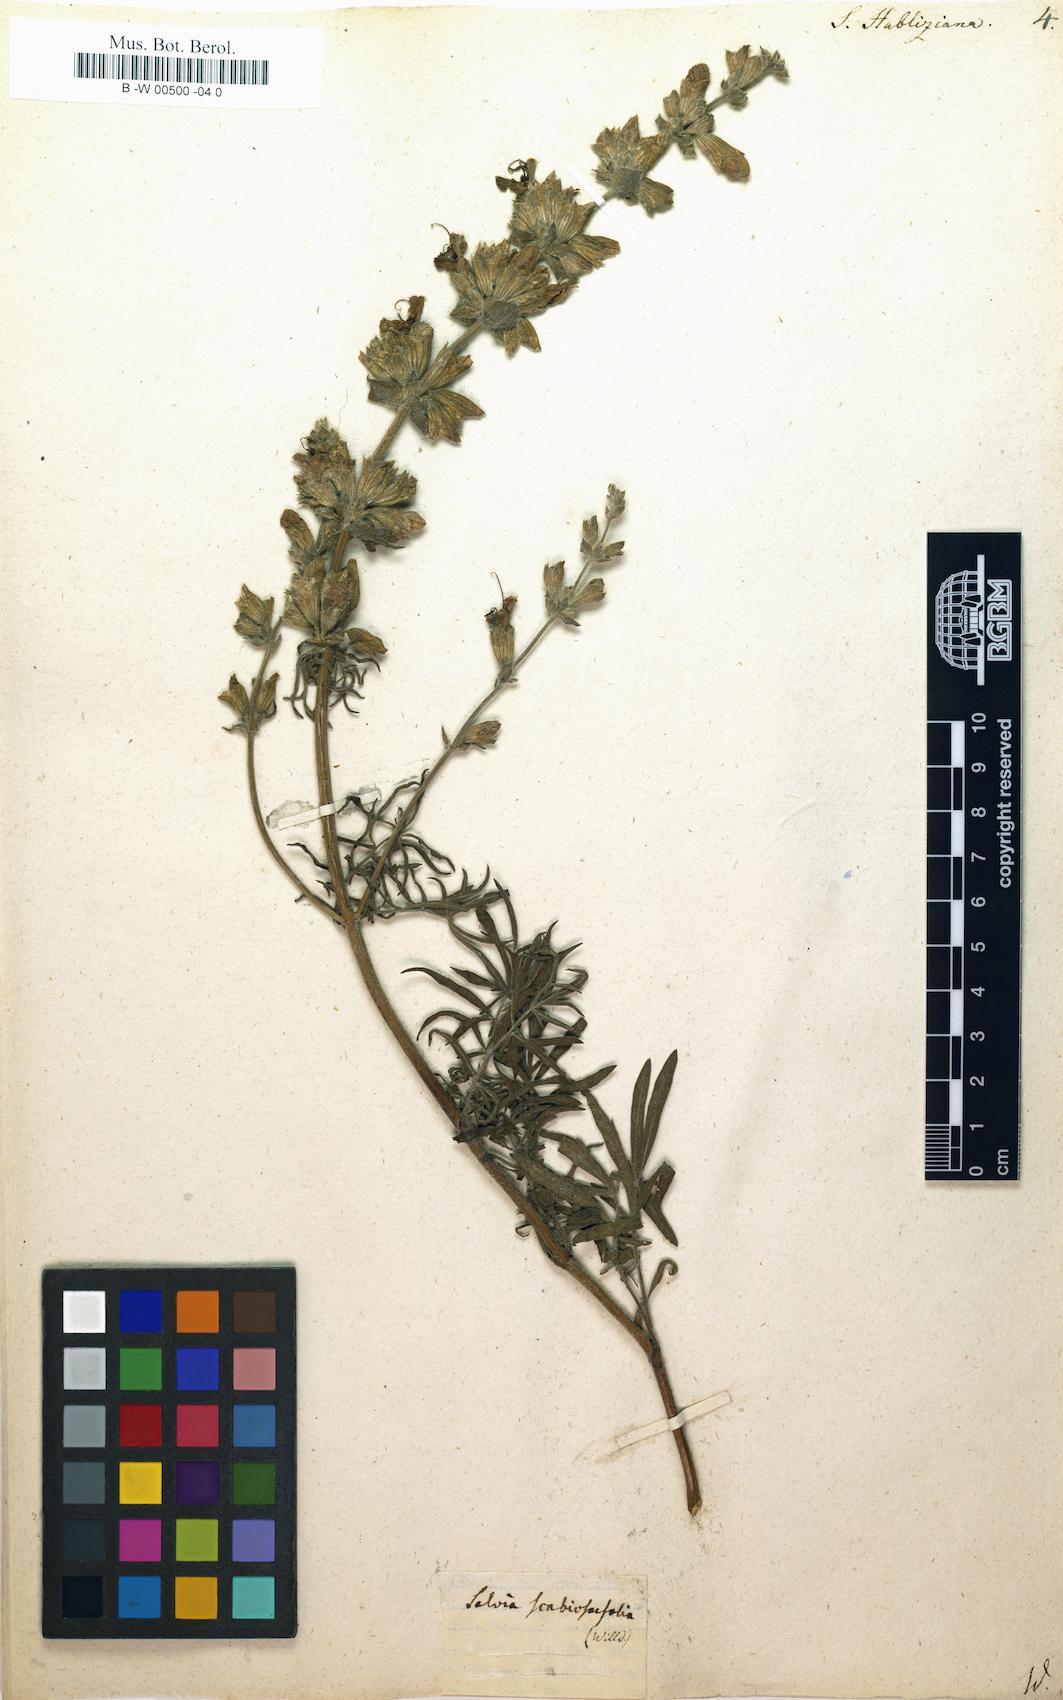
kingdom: Plantae
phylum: Tracheophyta
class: Magnoliopsida
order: Lamiales
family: Lamiaceae
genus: Salvia
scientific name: Salvia scabiosifolia
